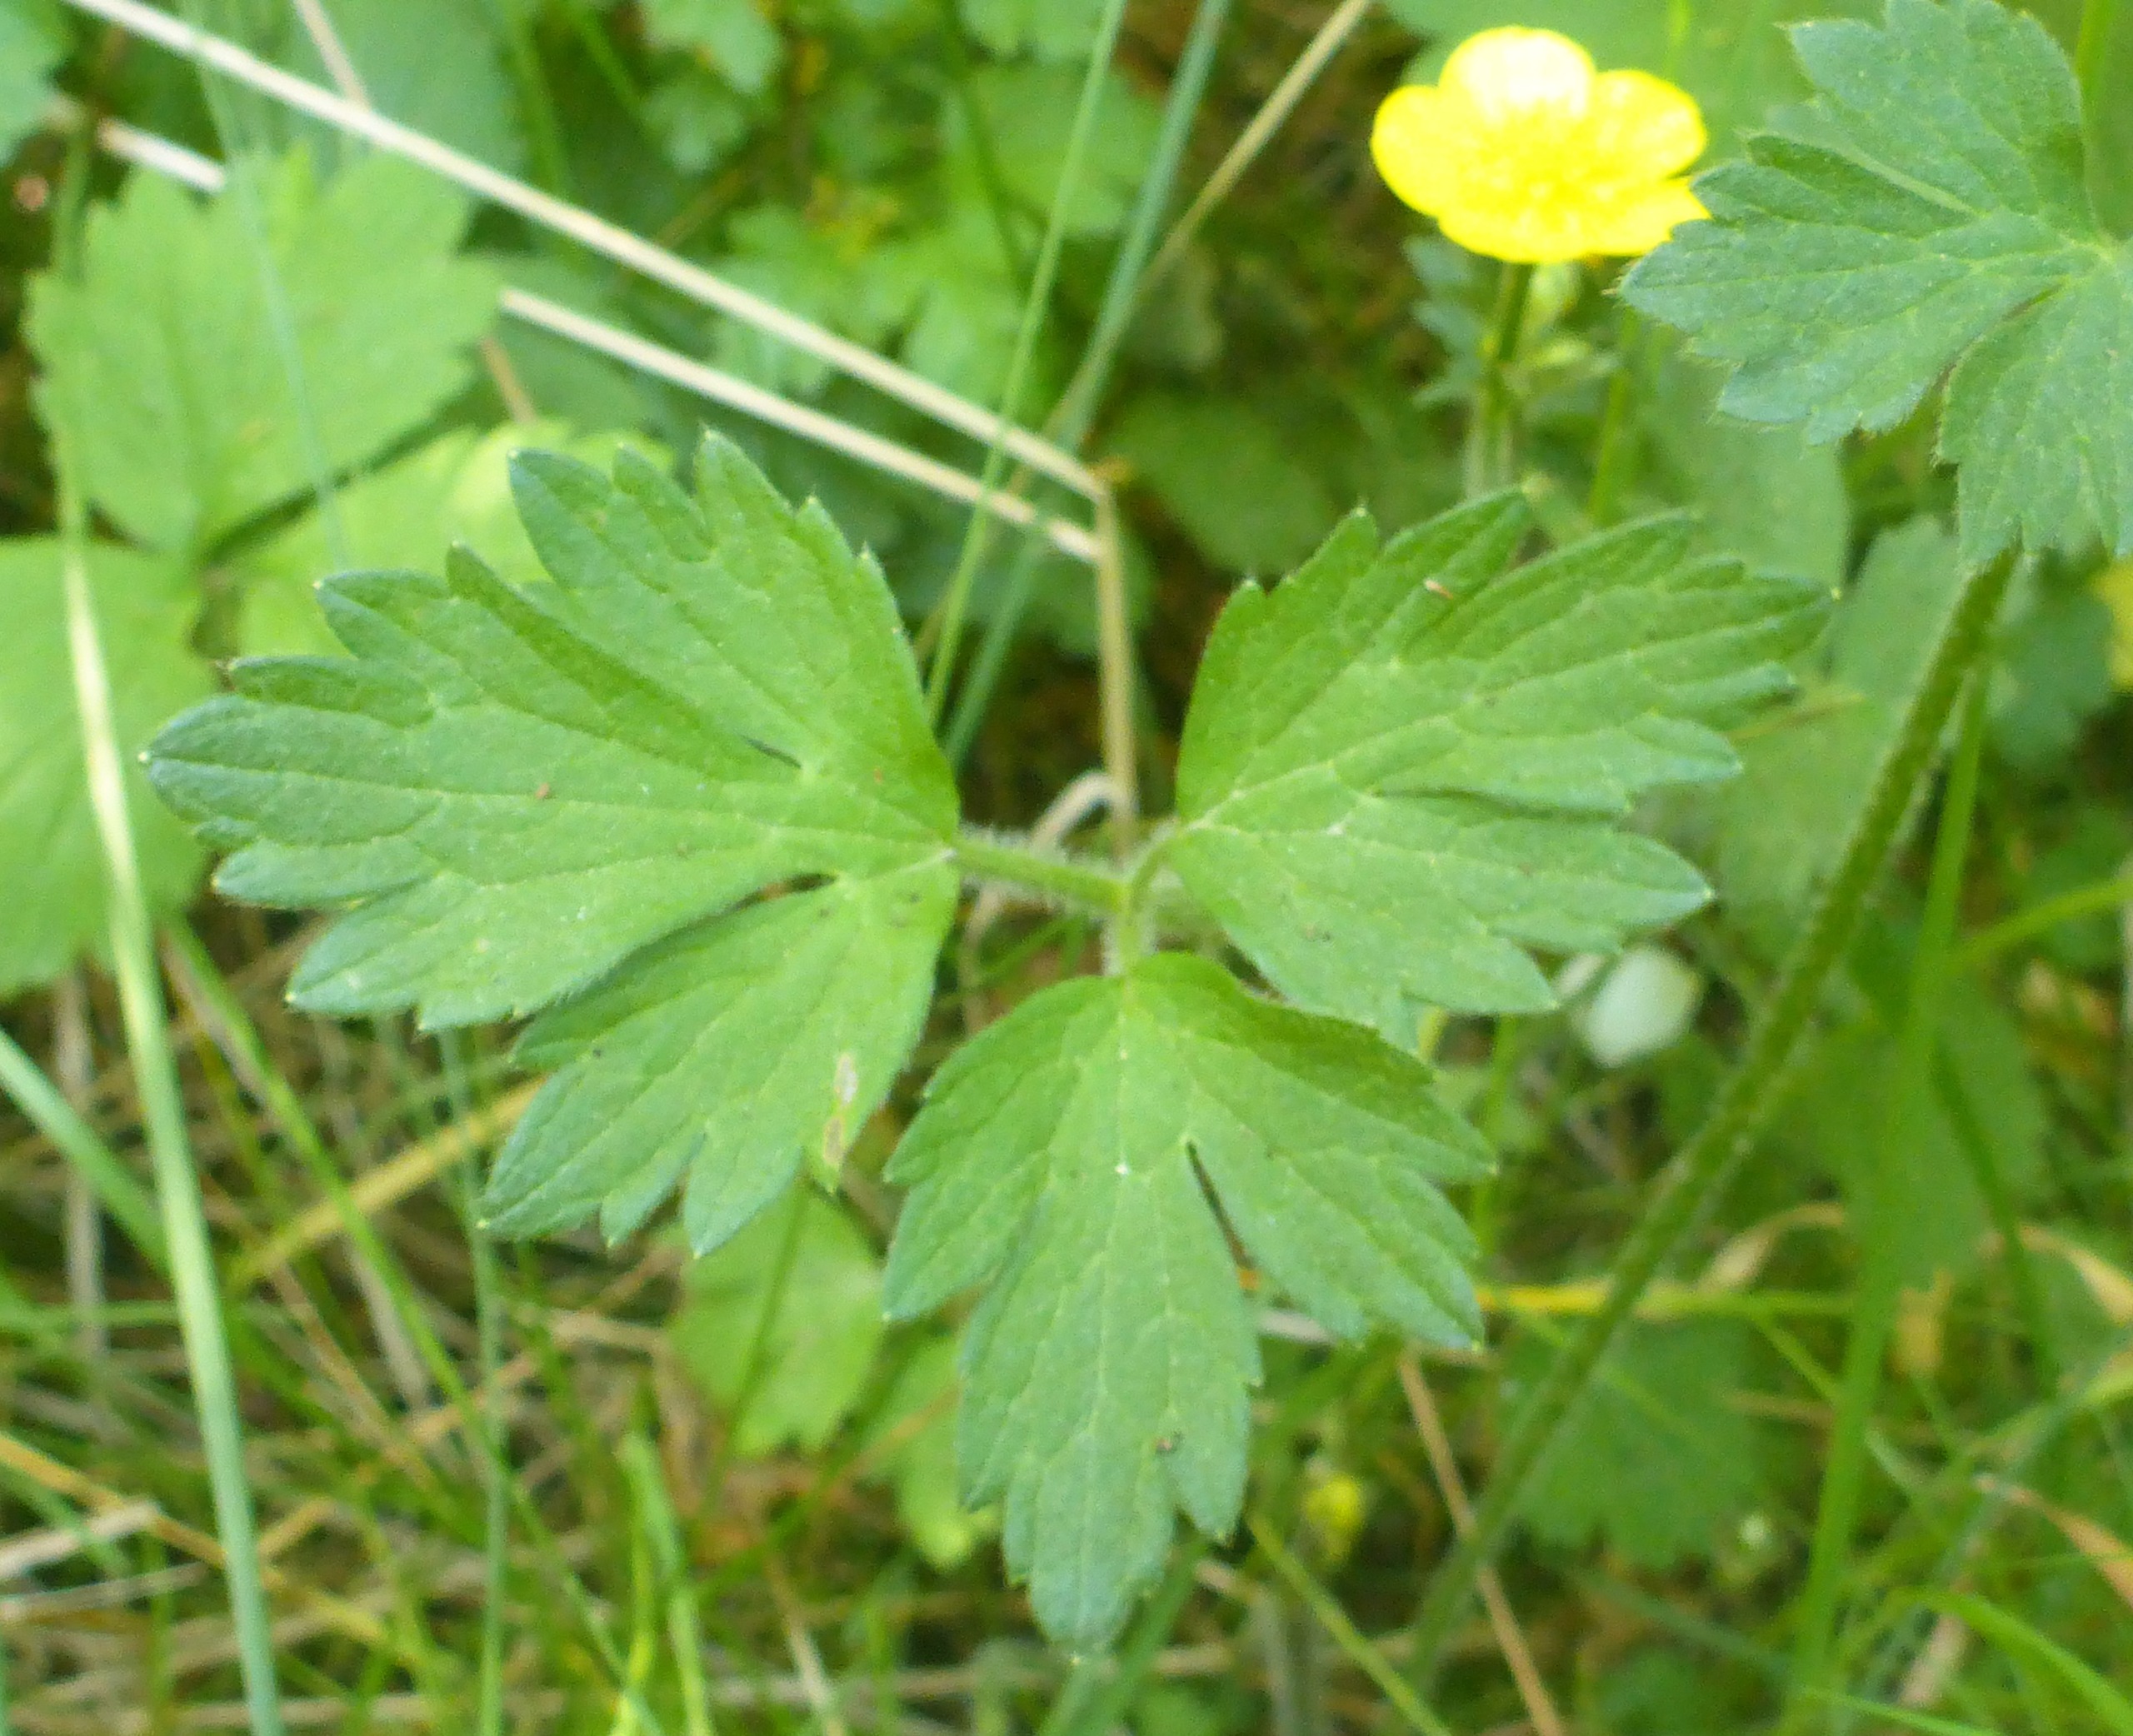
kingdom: Plantae
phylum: Tracheophyta
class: Magnoliopsida
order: Ranunculales
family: Ranunculaceae
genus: Ranunculus
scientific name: Ranunculus repens
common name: Lav ranunkel
